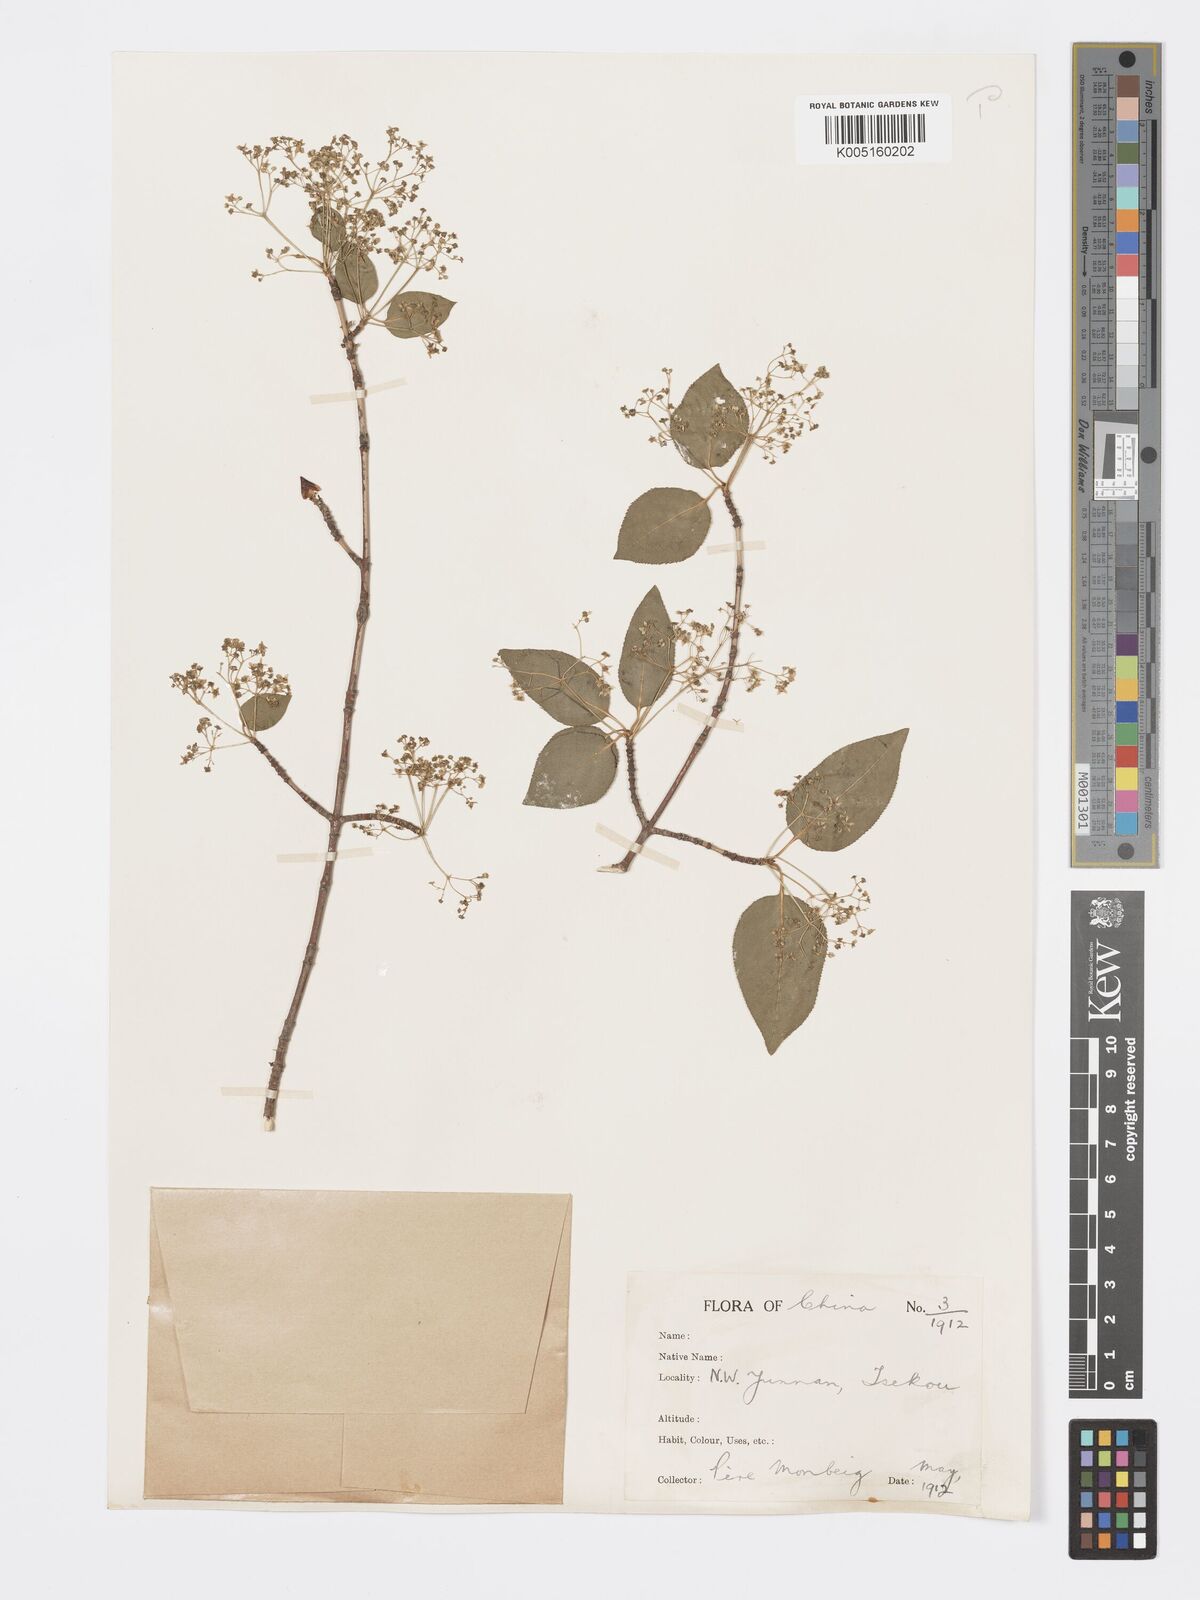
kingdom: Plantae
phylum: Tracheophyta
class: Magnoliopsida
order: Celastrales
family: Celastraceae
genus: Euonymus
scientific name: Euonymus sanguineus
